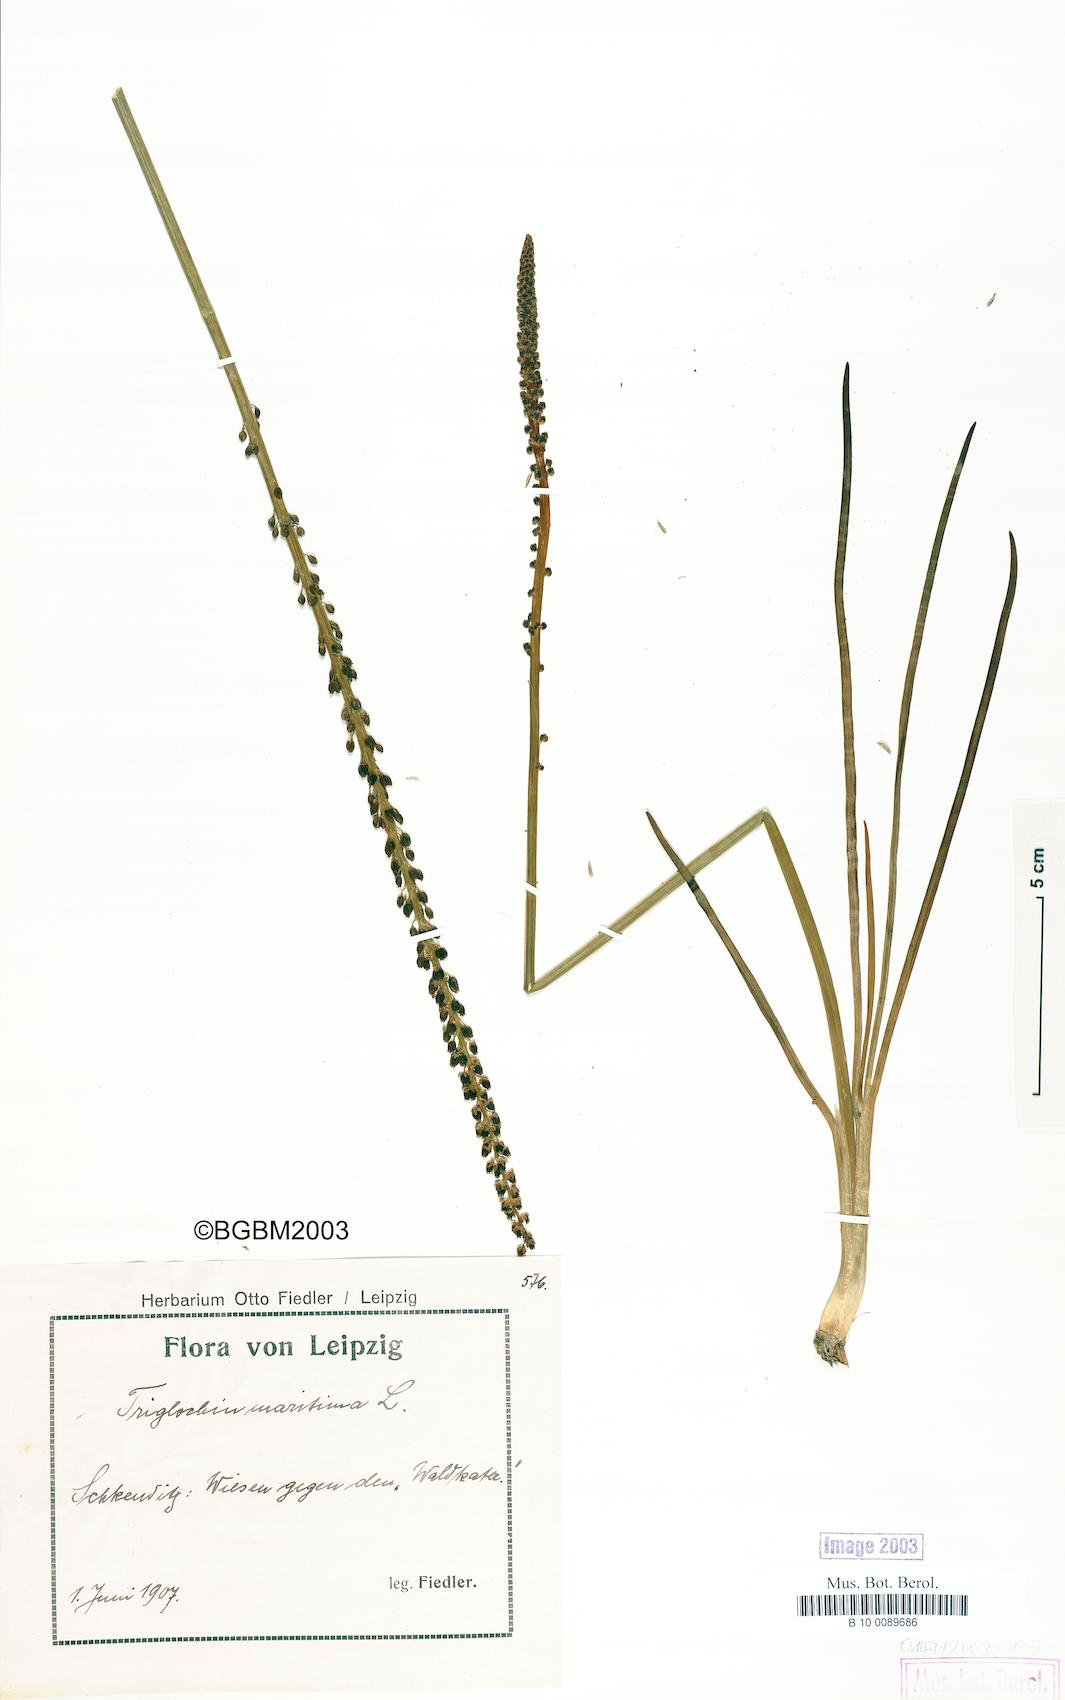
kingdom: Plantae
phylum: Tracheophyta
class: Liliopsida
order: Alismatales
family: Juncaginaceae
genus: Triglochin
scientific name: Triglochin maritima
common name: Sea arrowgrass
